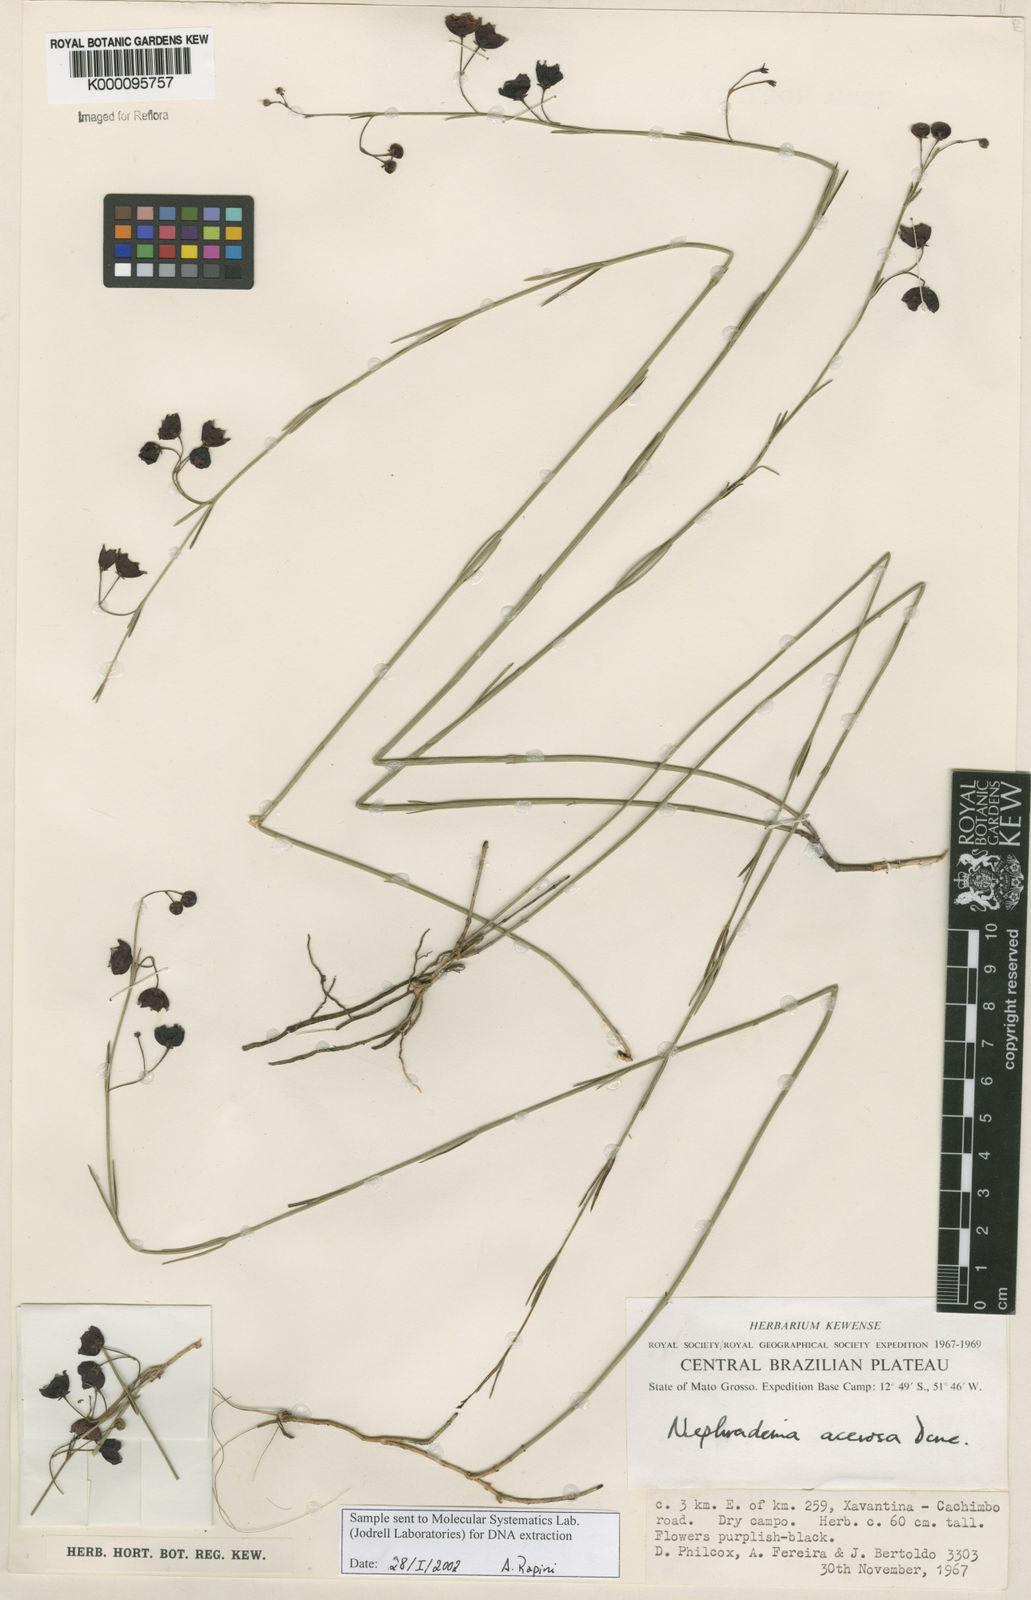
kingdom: Plantae
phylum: Tracheophyta
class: Magnoliopsida
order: Gentianales
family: Apocynaceae
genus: Nephradenia
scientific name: Nephradenia acerosa
